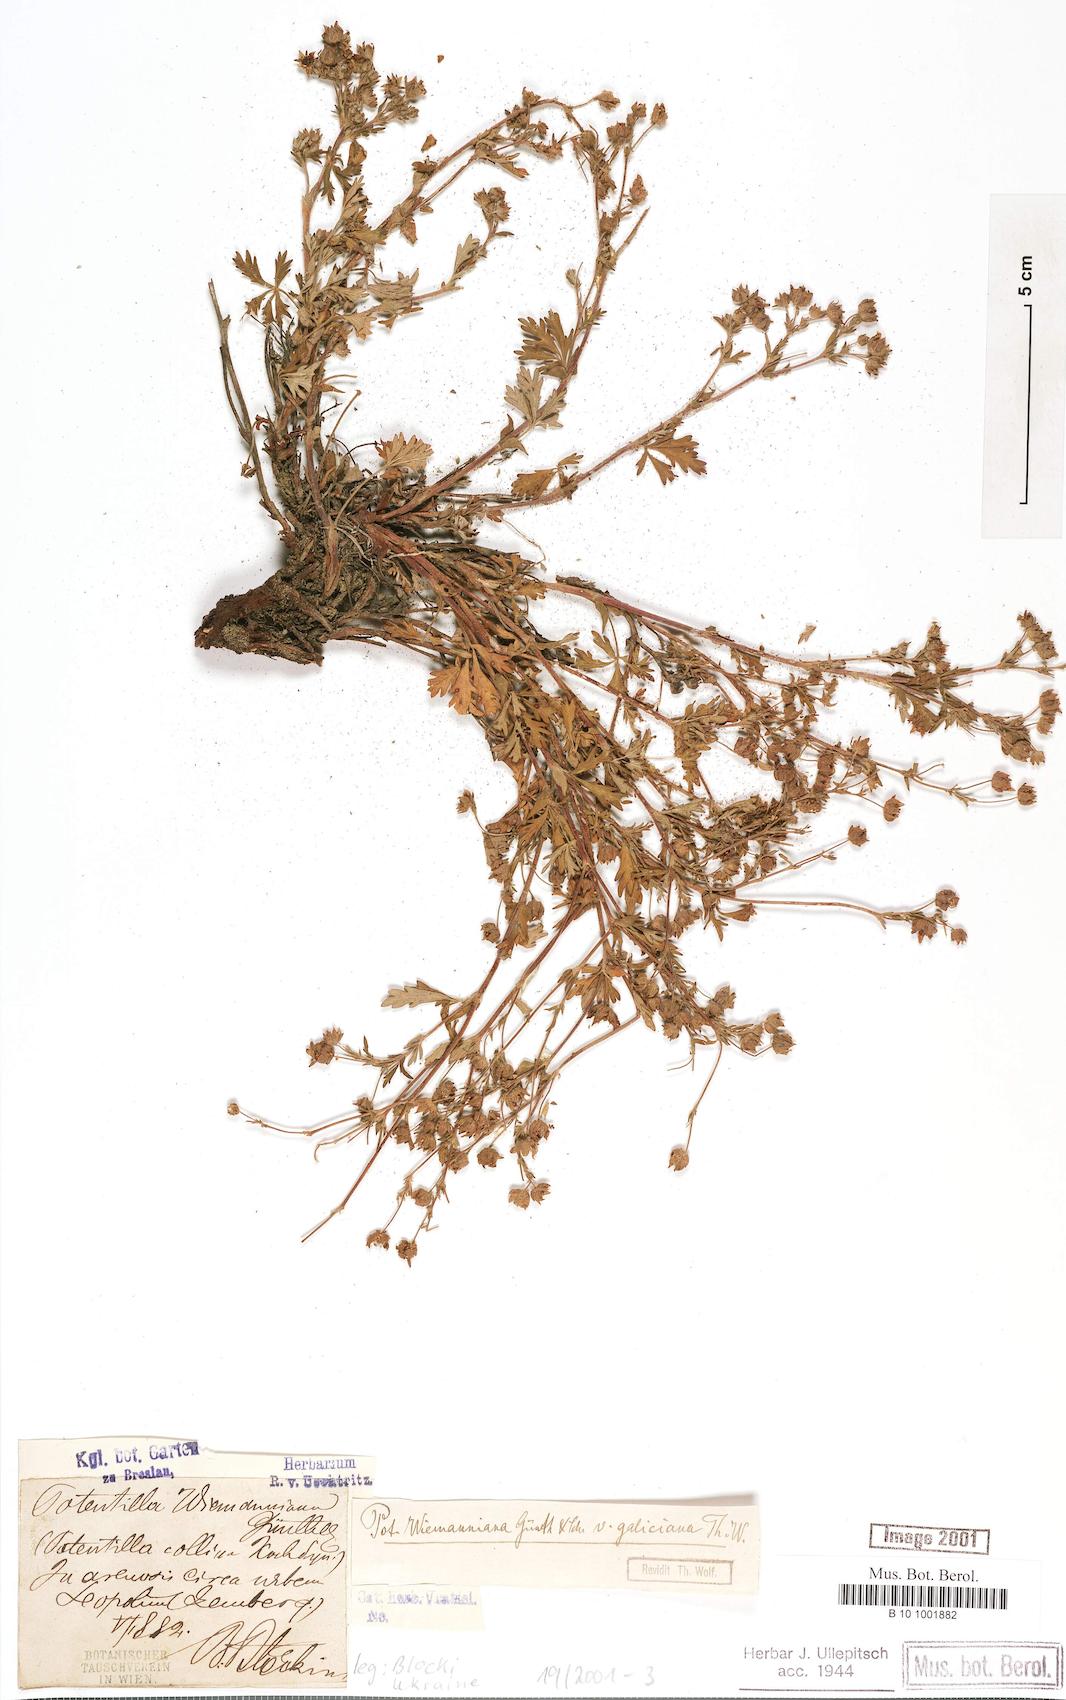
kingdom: Plantae
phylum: Tracheophyta
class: Magnoliopsida
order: Rosales
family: Rosaceae
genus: Potentilla
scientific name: Potentilla
